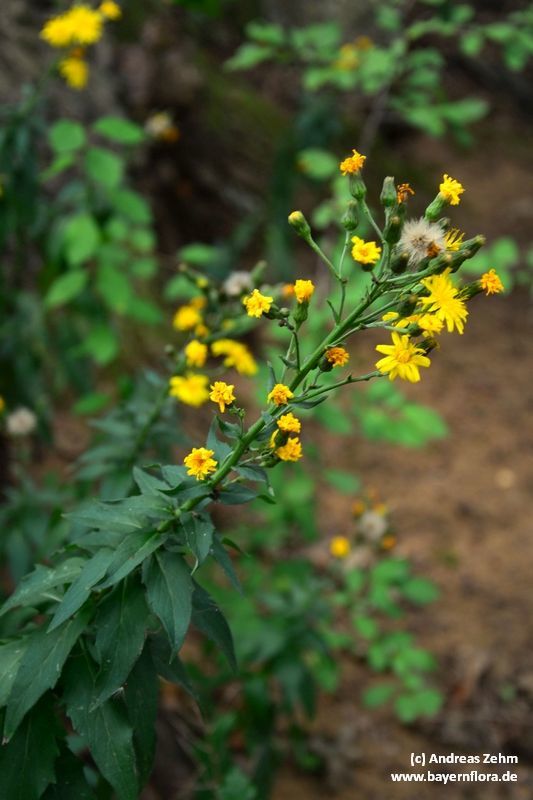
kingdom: Plantae
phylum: Tracheophyta
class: Magnoliopsida
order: Asterales
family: Asteraceae
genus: Hieracium
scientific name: Hieracium sabaudum
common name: New england hawkweed
